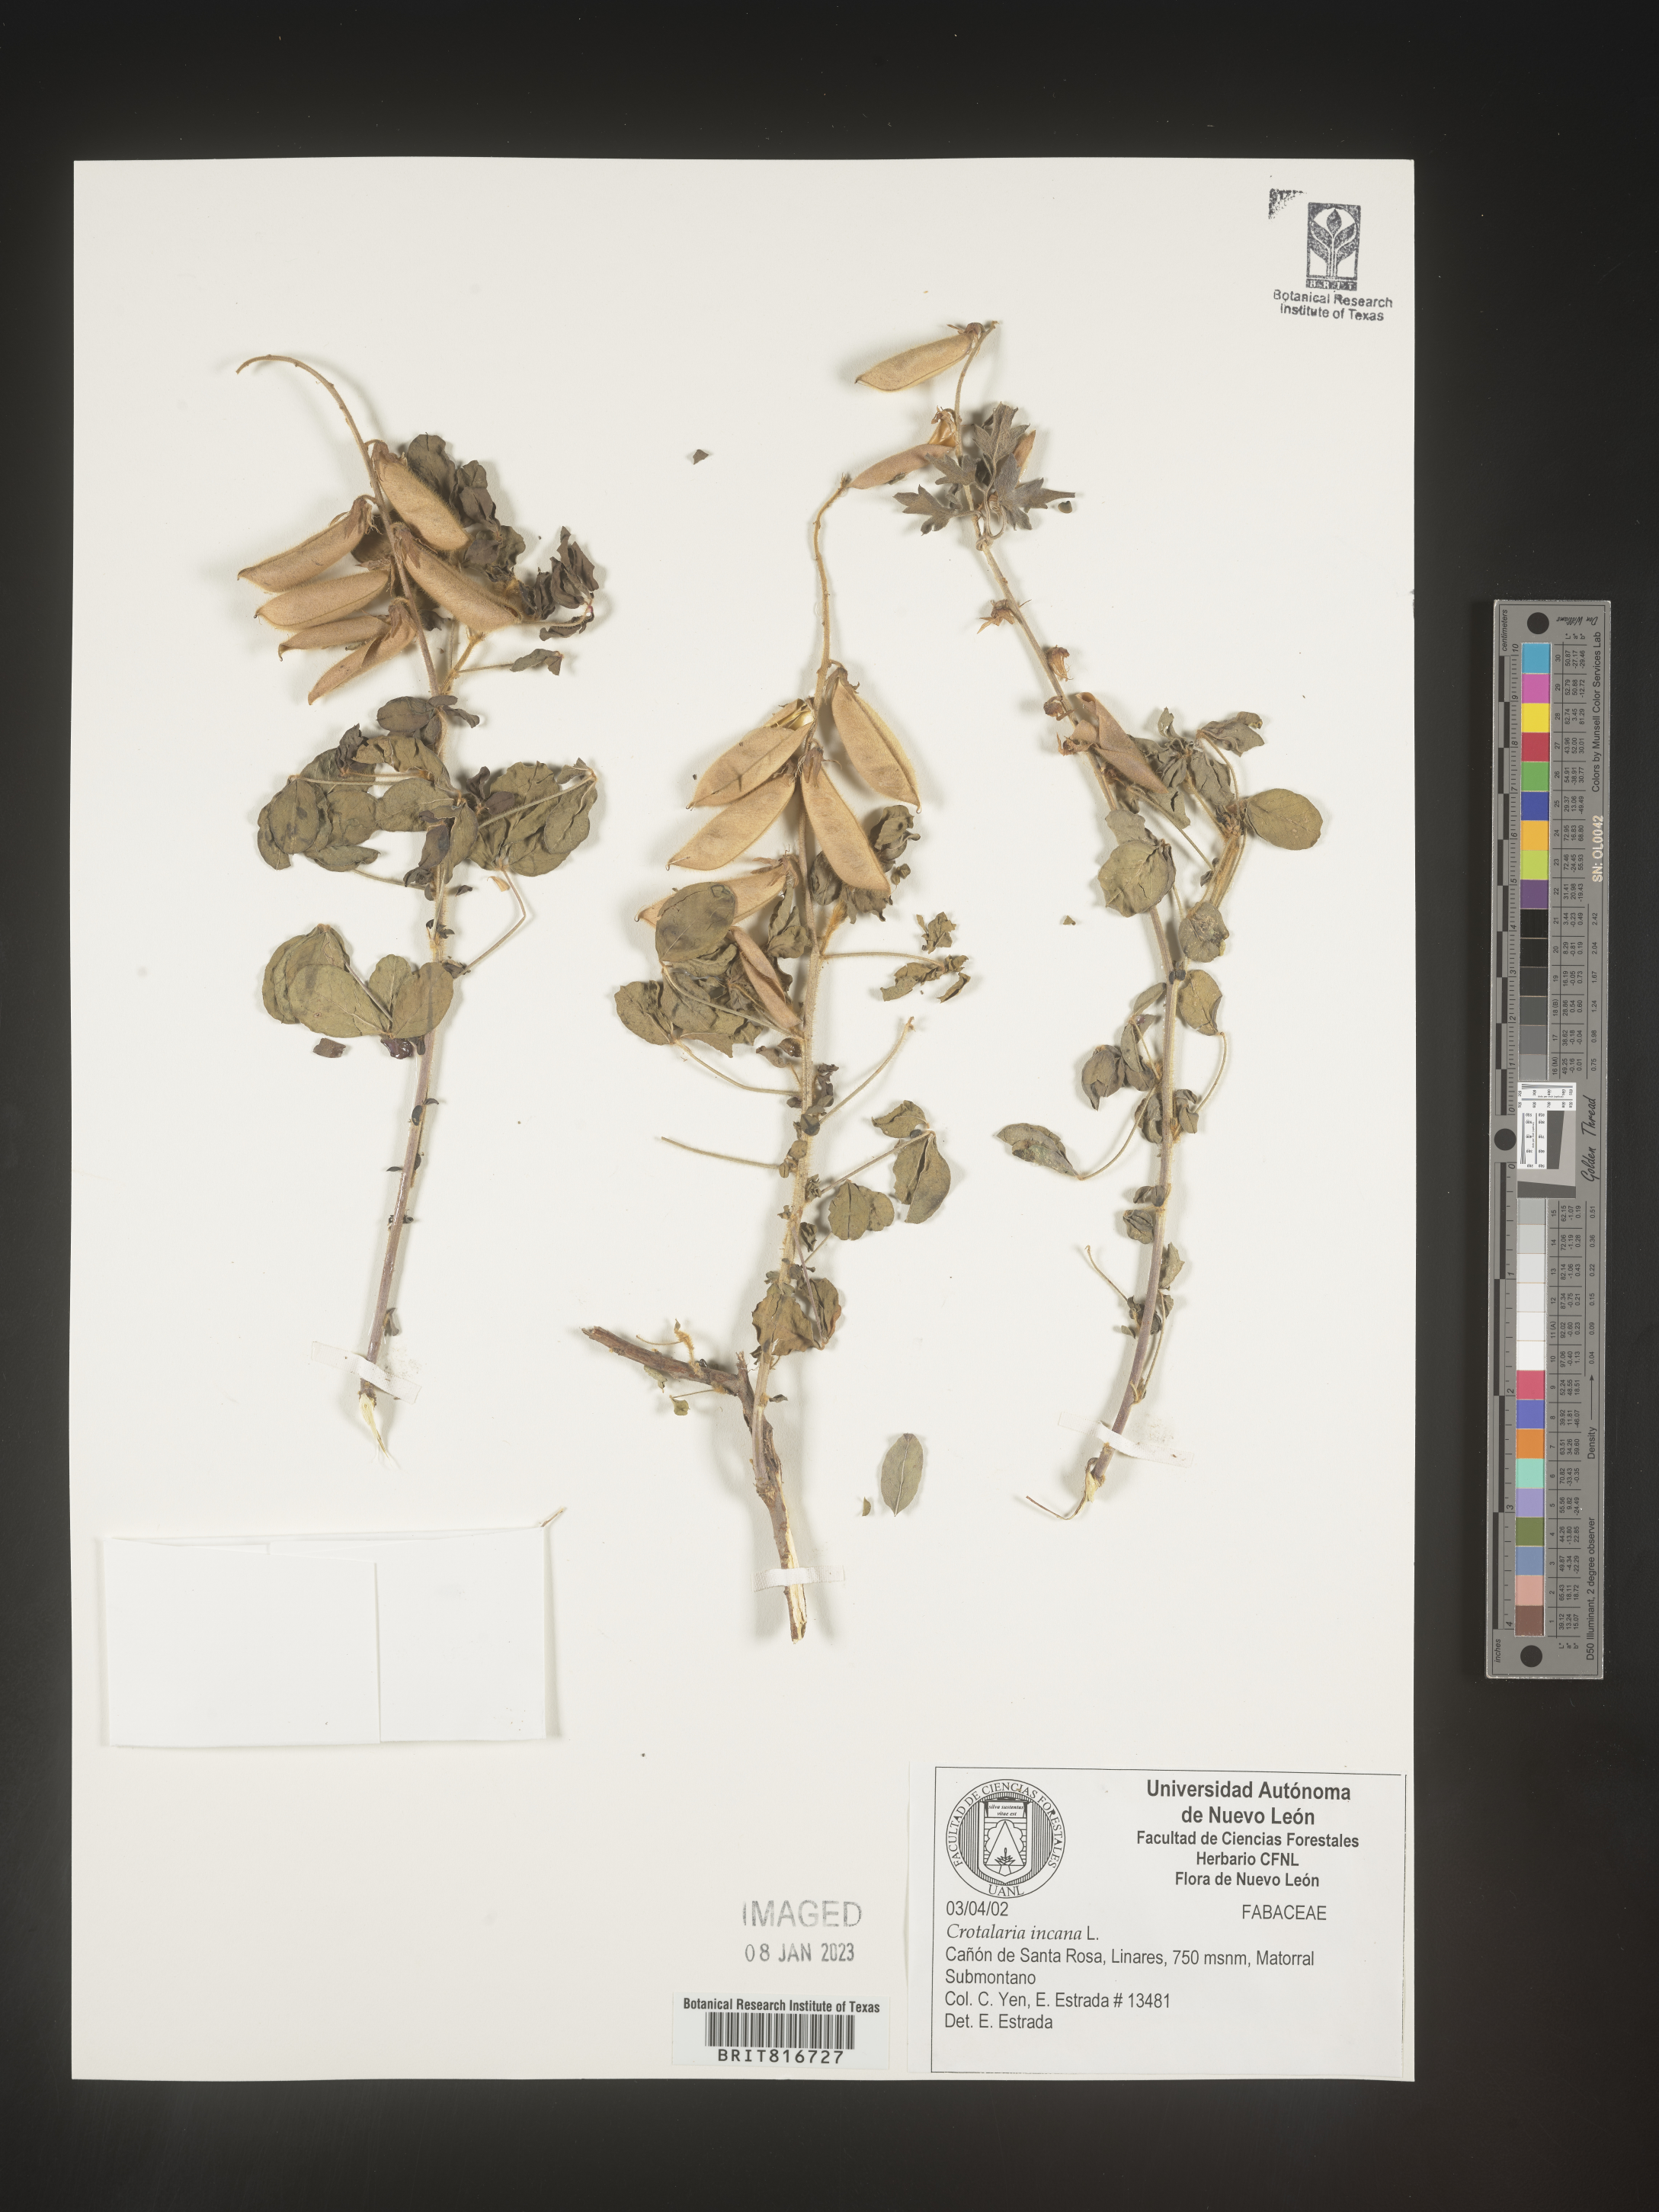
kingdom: Plantae
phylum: Tracheophyta
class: Magnoliopsida
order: Fabales
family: Fabaceae
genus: Crotalaria
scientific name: Crotalaria
